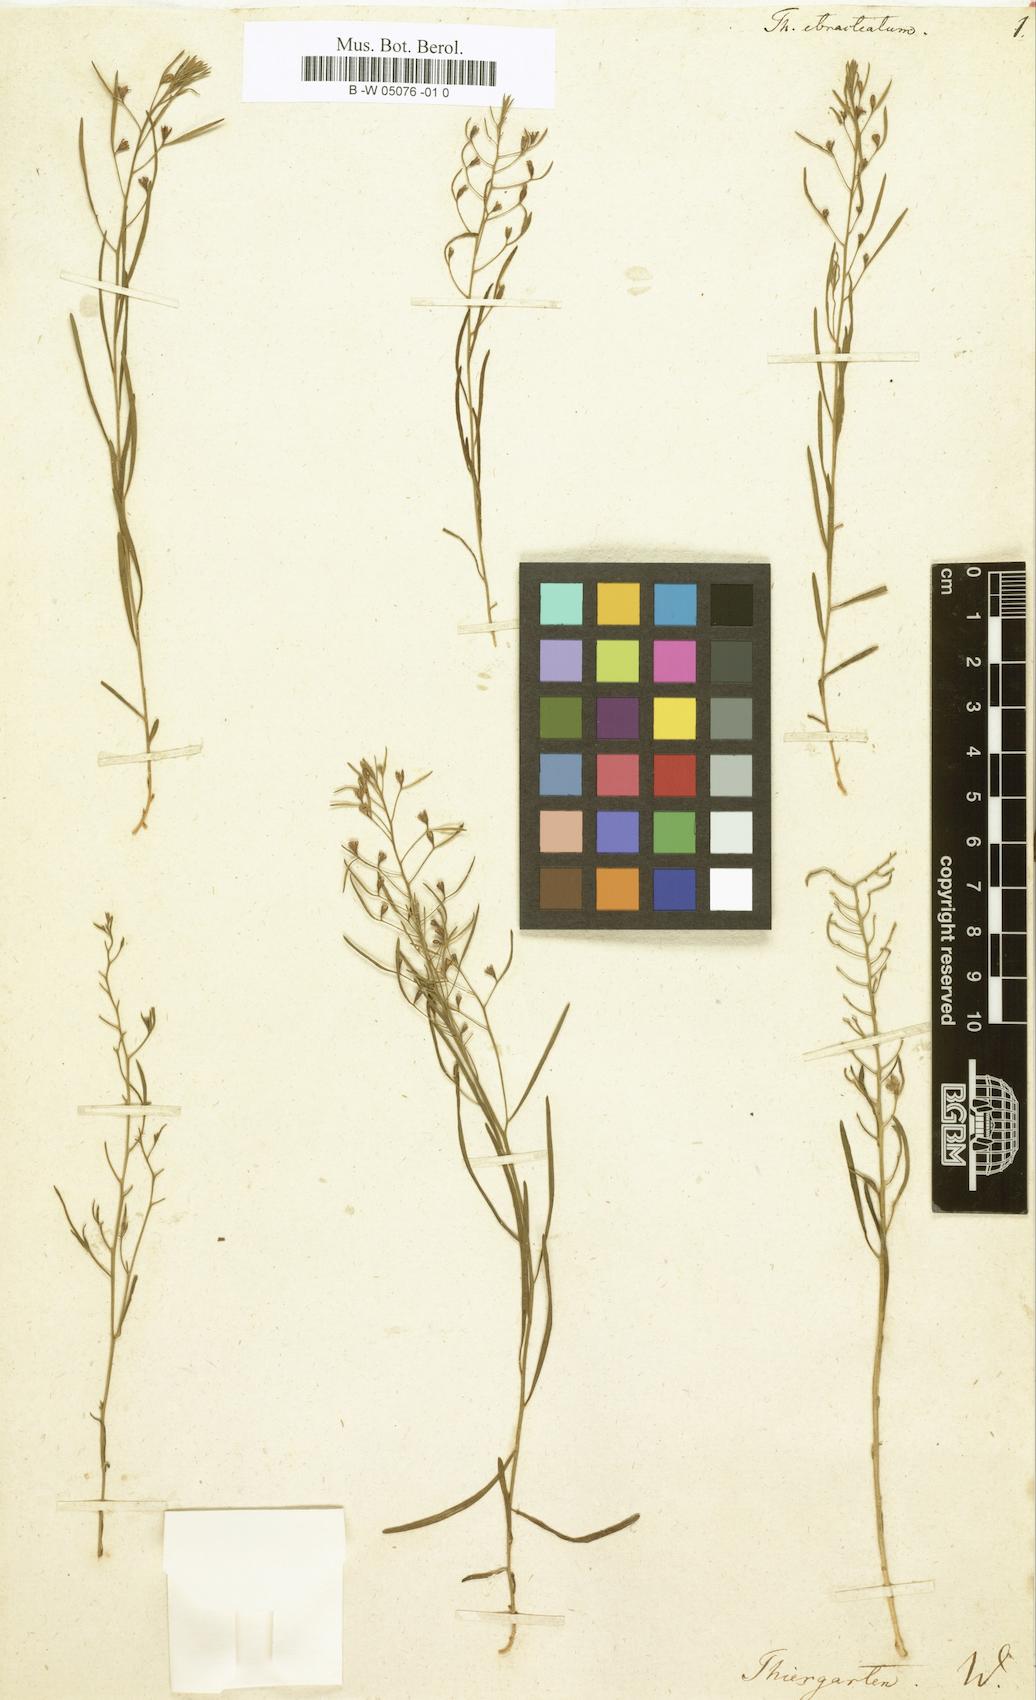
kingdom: Plantae
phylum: Tracheophyta
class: Magnoliopsida
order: Santalales
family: Thesiaceae
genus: Thesium
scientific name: Thesium ebracteatum
